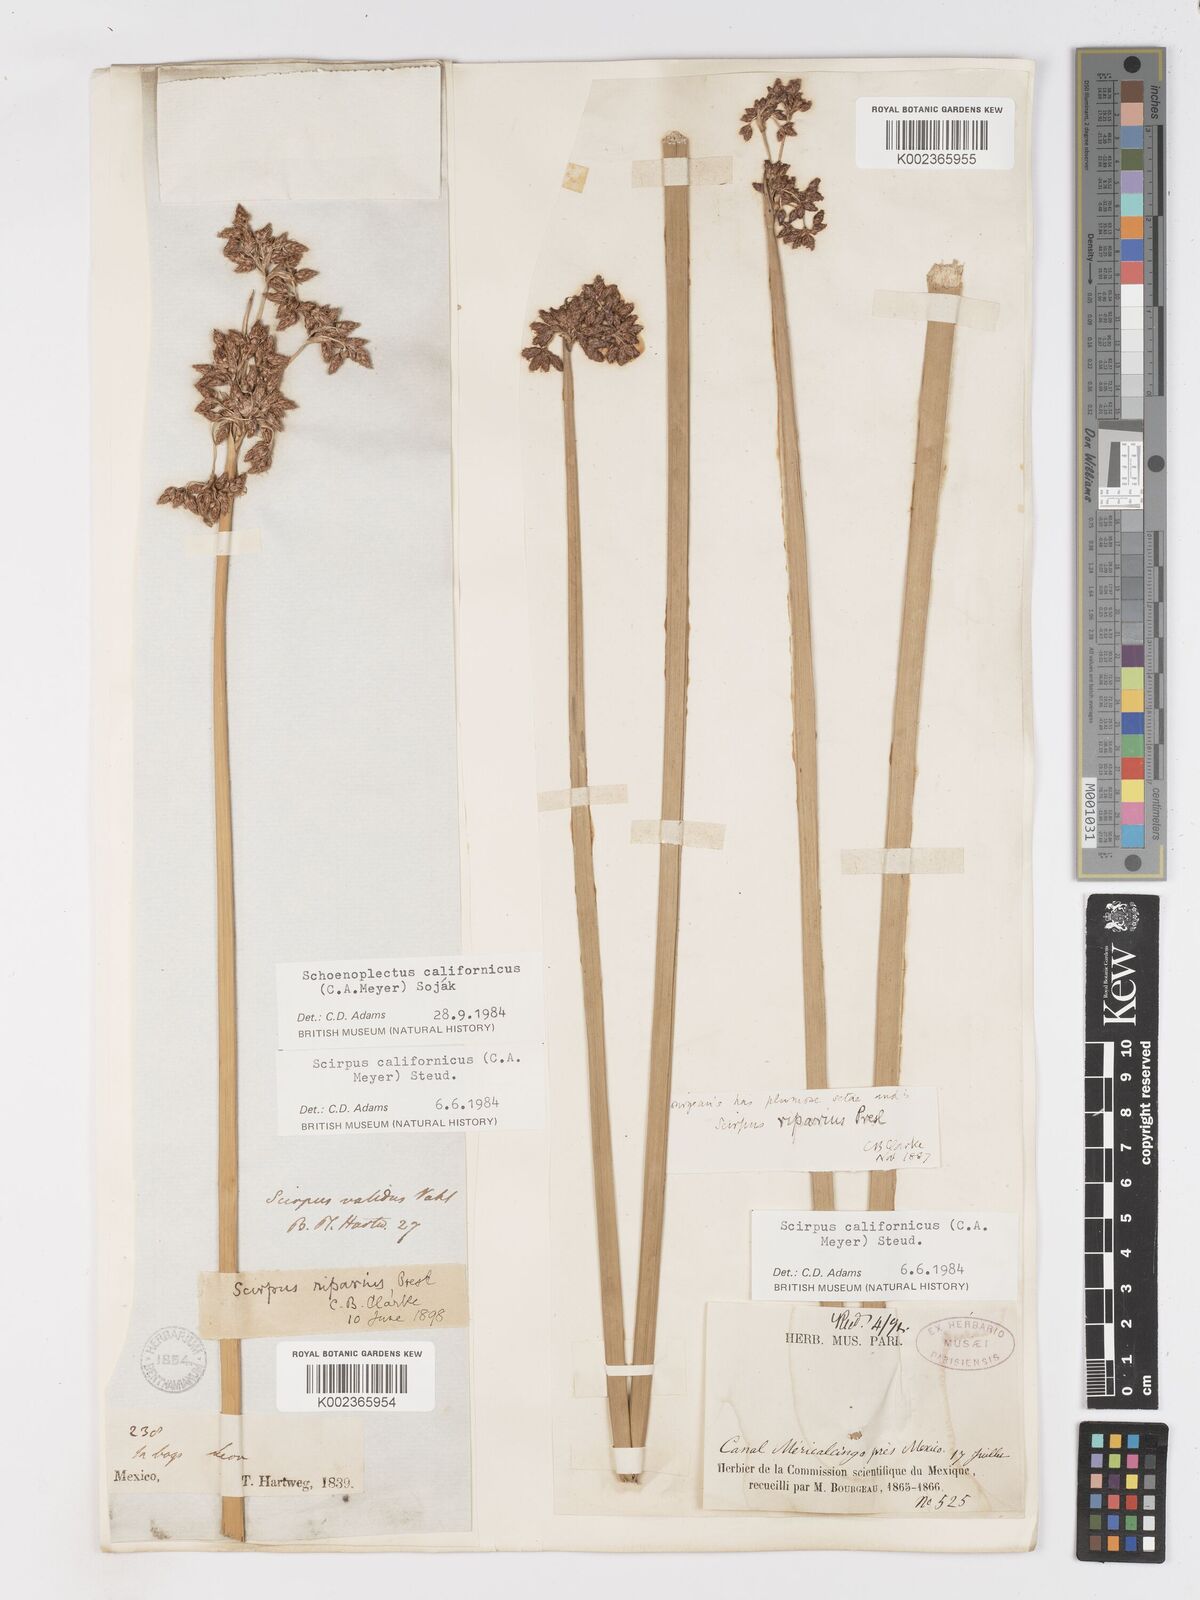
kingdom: Plantae
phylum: Tracheophyta
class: Liliopsida
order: Poales
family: Cyperaceae
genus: Schoenoplectus
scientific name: Schoenoplectus californicus
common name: California bulrush
